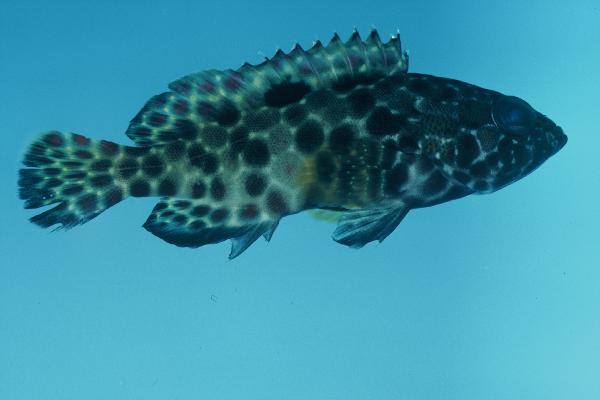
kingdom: Animalia
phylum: Chordata
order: Perciformes
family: Serranidae
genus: Epinephelus
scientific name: Epinephelus hexagonatus
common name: Hexagon grouper
